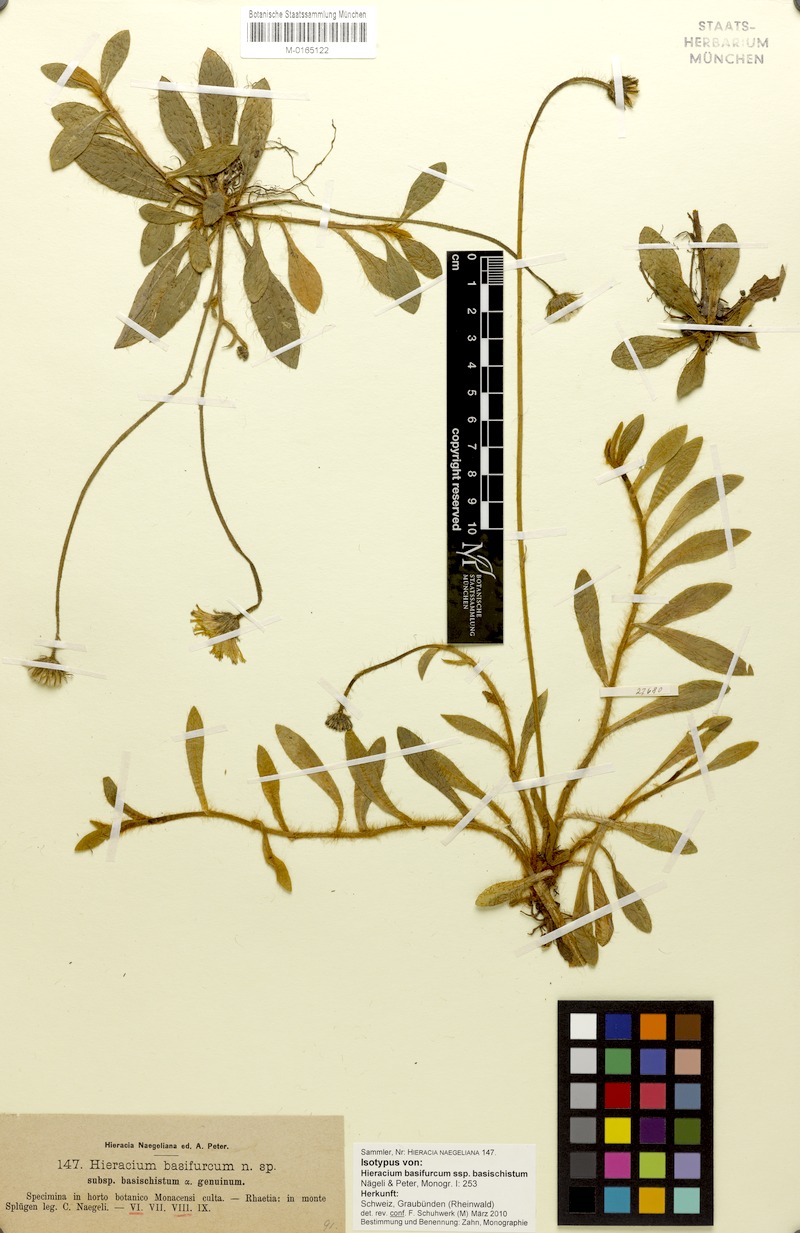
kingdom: Plantae
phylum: Tracheophyta
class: Magnoliopsida
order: Asterales
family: Asteraceae
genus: Pilosella
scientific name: Pilosella basifurca
